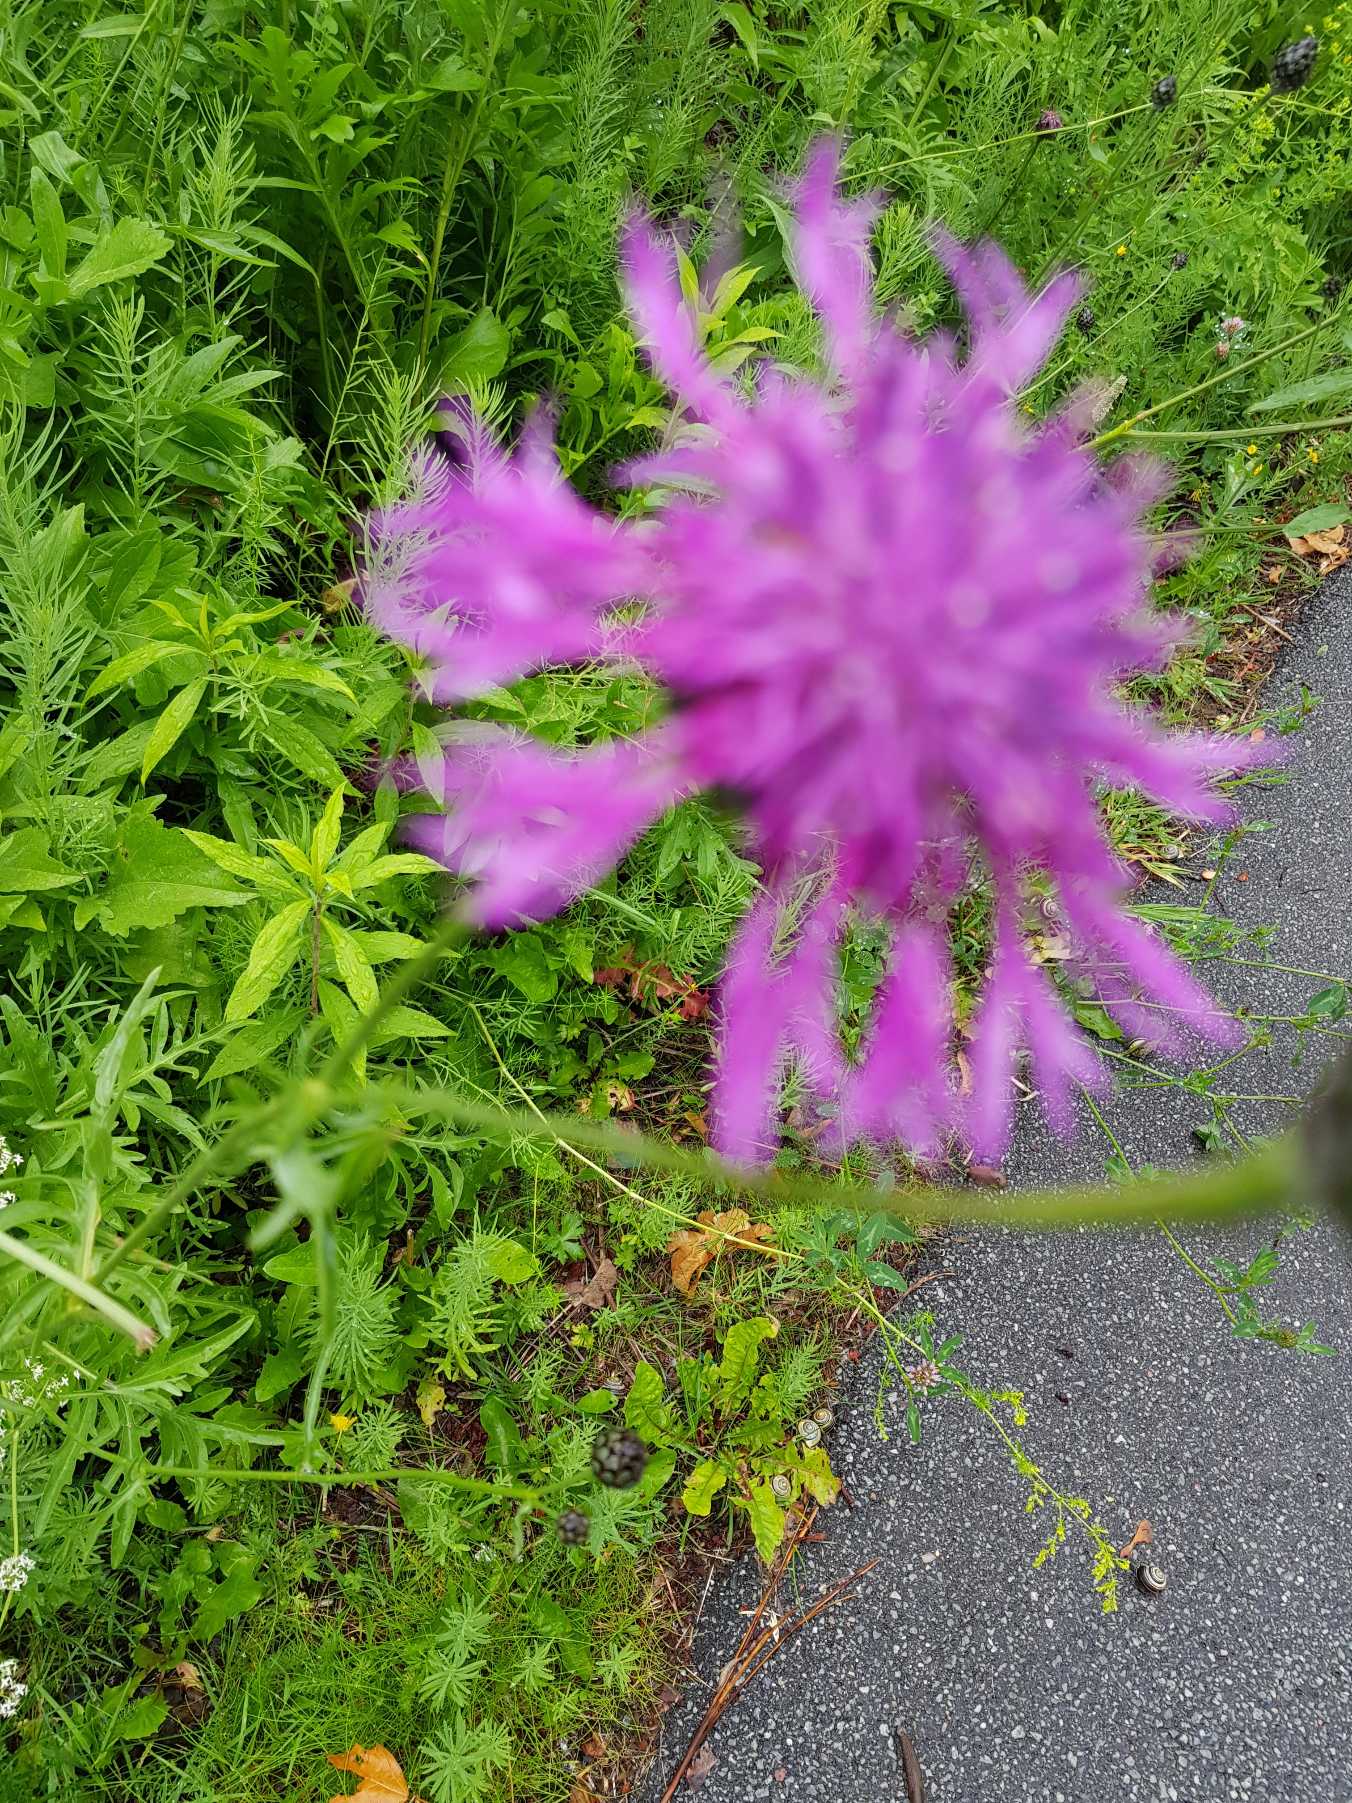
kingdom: Plantae
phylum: Tracheophyta
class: Magnoliopsida
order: Asterales
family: Asteraceae
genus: Centaurea
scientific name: Centaurea jacea
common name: Almindelig knopurt
